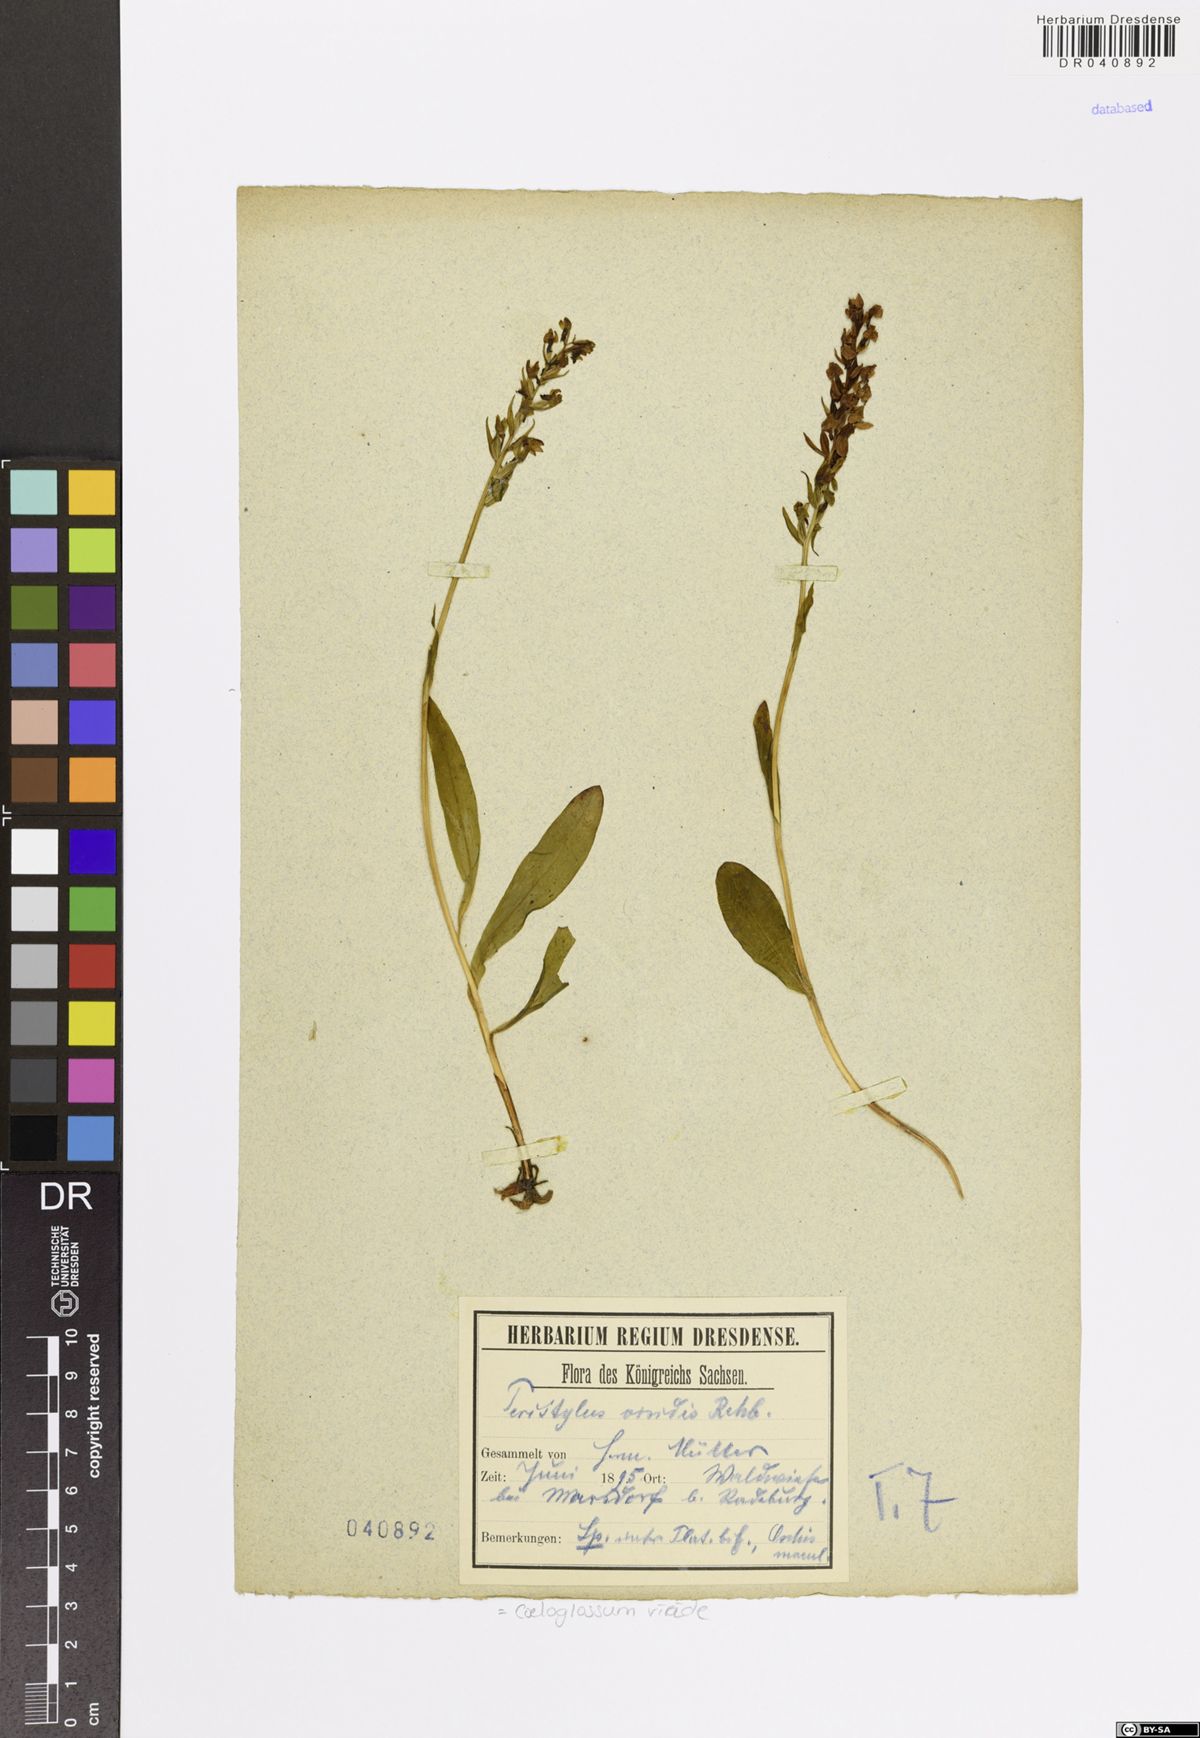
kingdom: Plantae
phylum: Tracheophyta
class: Liliopsida
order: Asparagales
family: Orchidaceae
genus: Dactylorhiza
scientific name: Dactylorhiza viridis
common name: Longbract frog orchid
